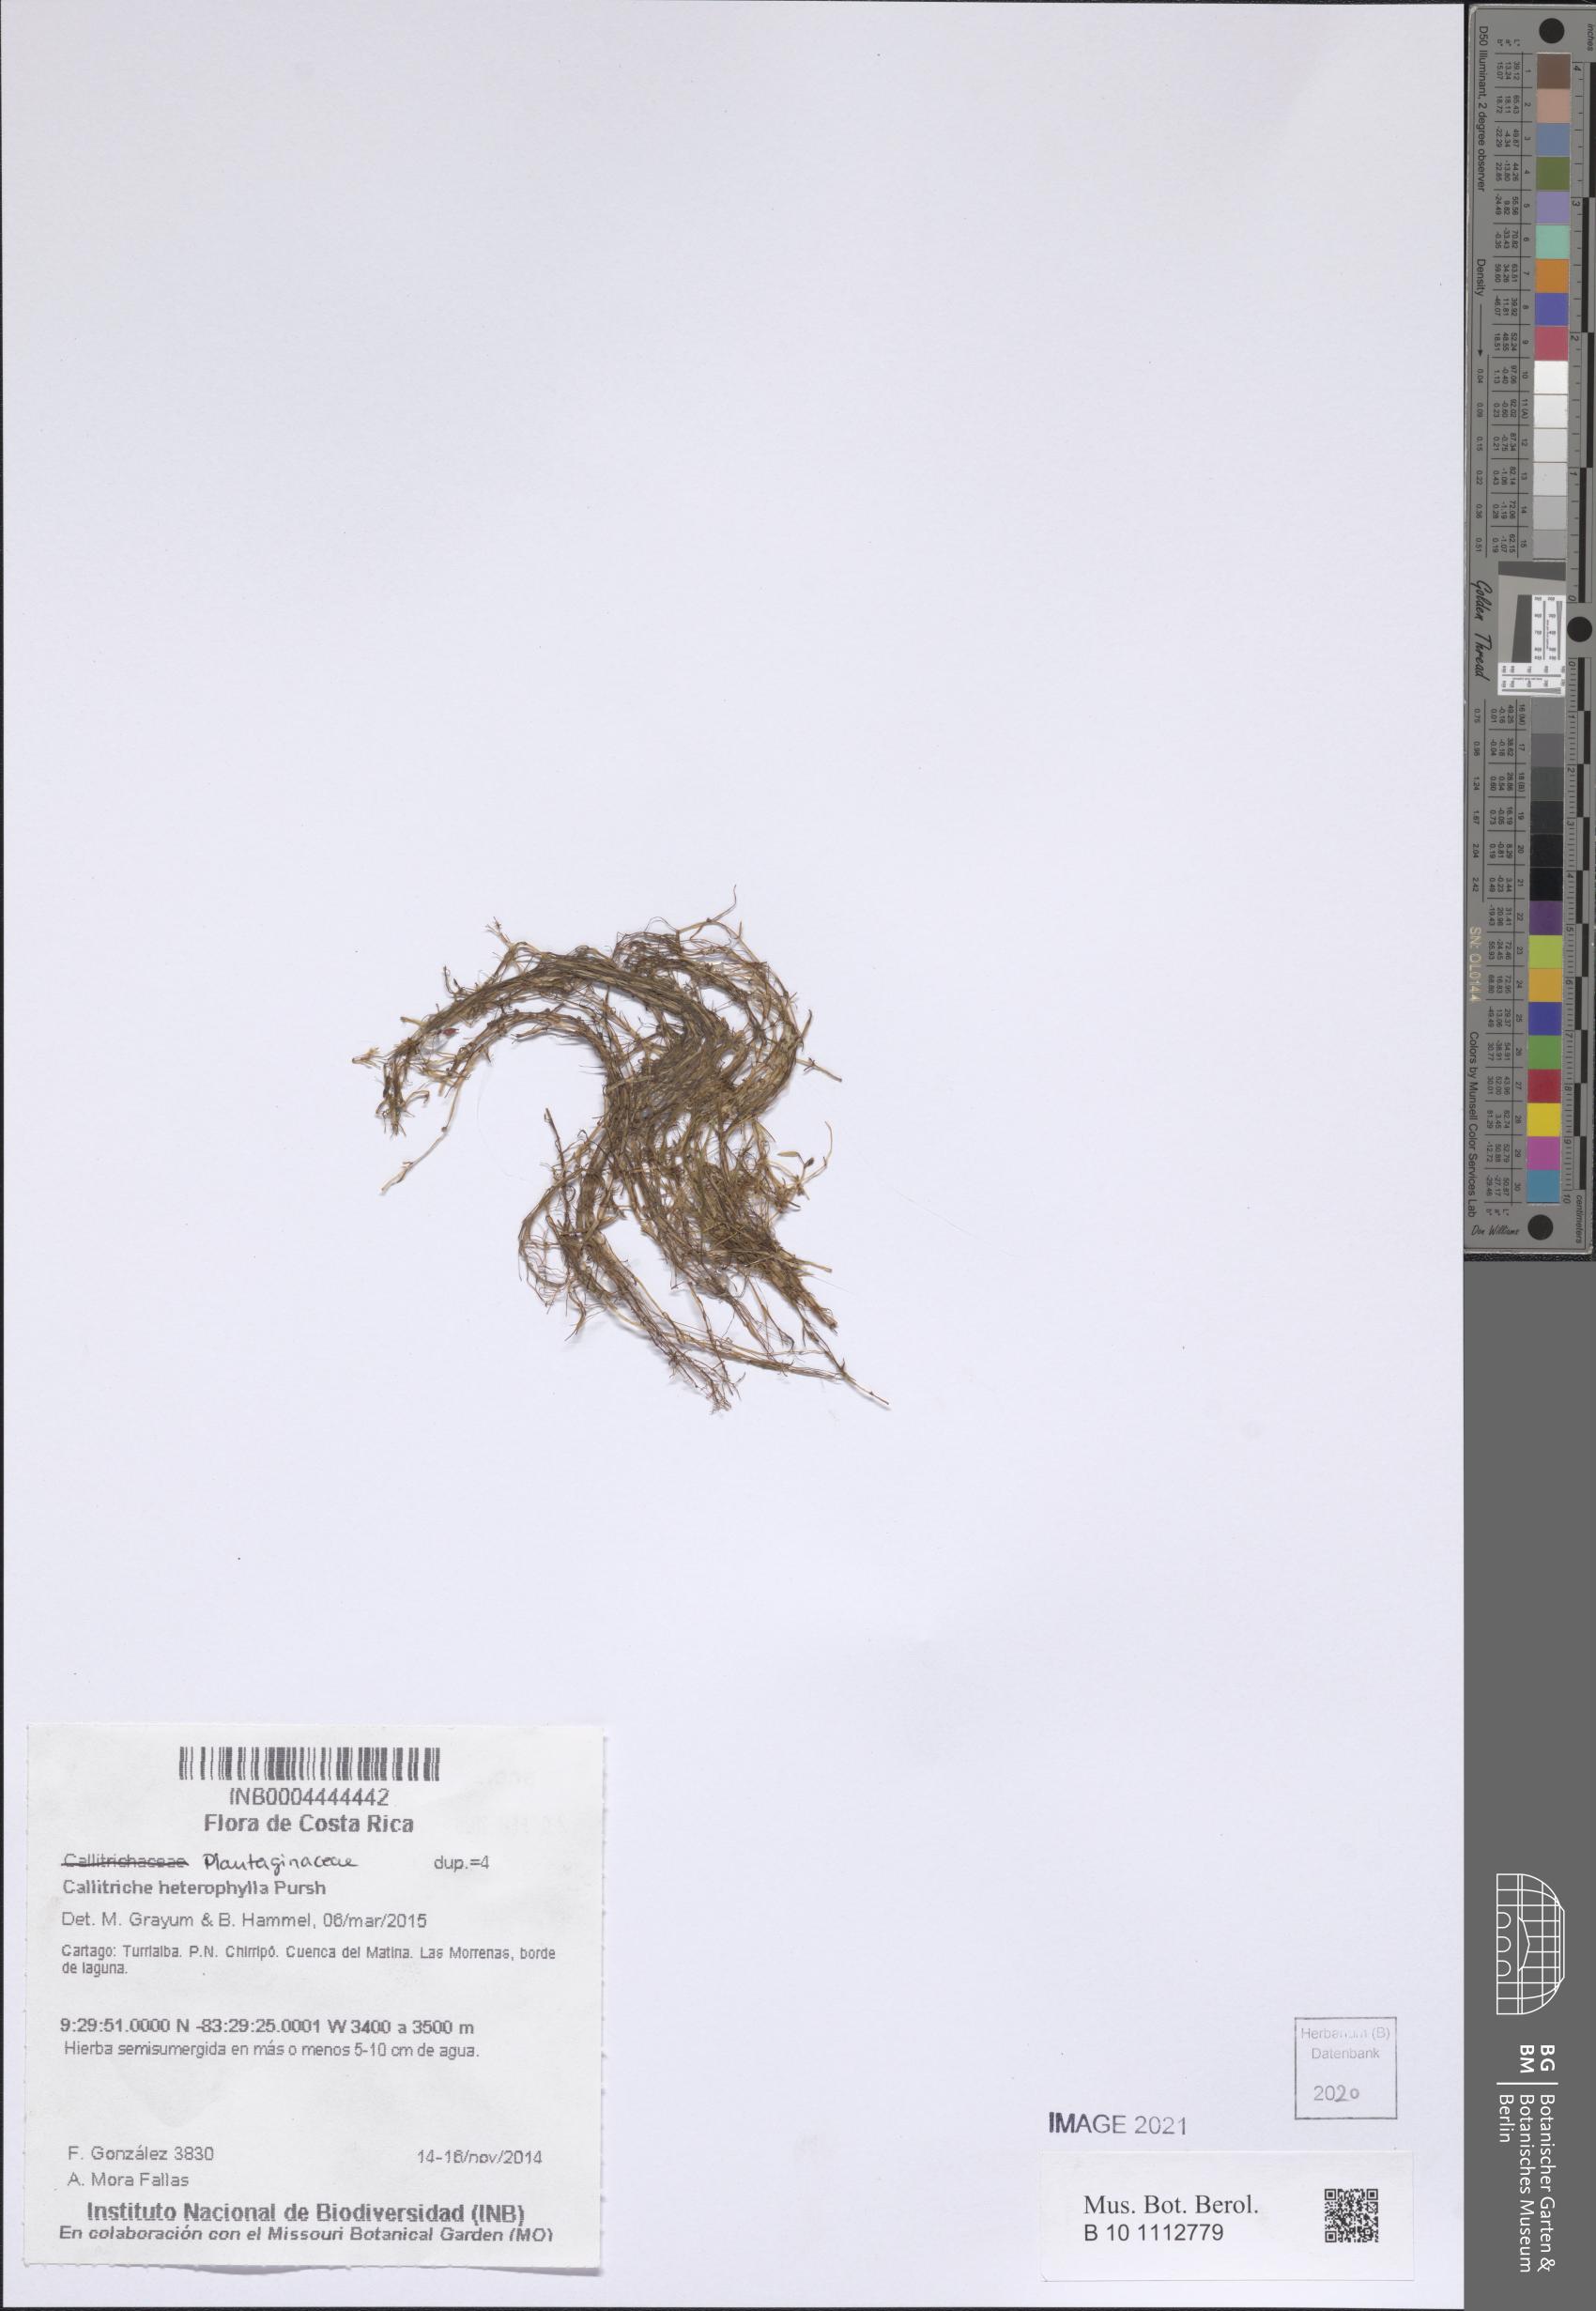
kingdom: Plantae
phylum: Tracheophyta
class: Magnoliopsida
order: Lamiales
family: Plantaginaceae
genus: Callitriche
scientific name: Callitriche heterophylla
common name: Two-headed water-starwort
